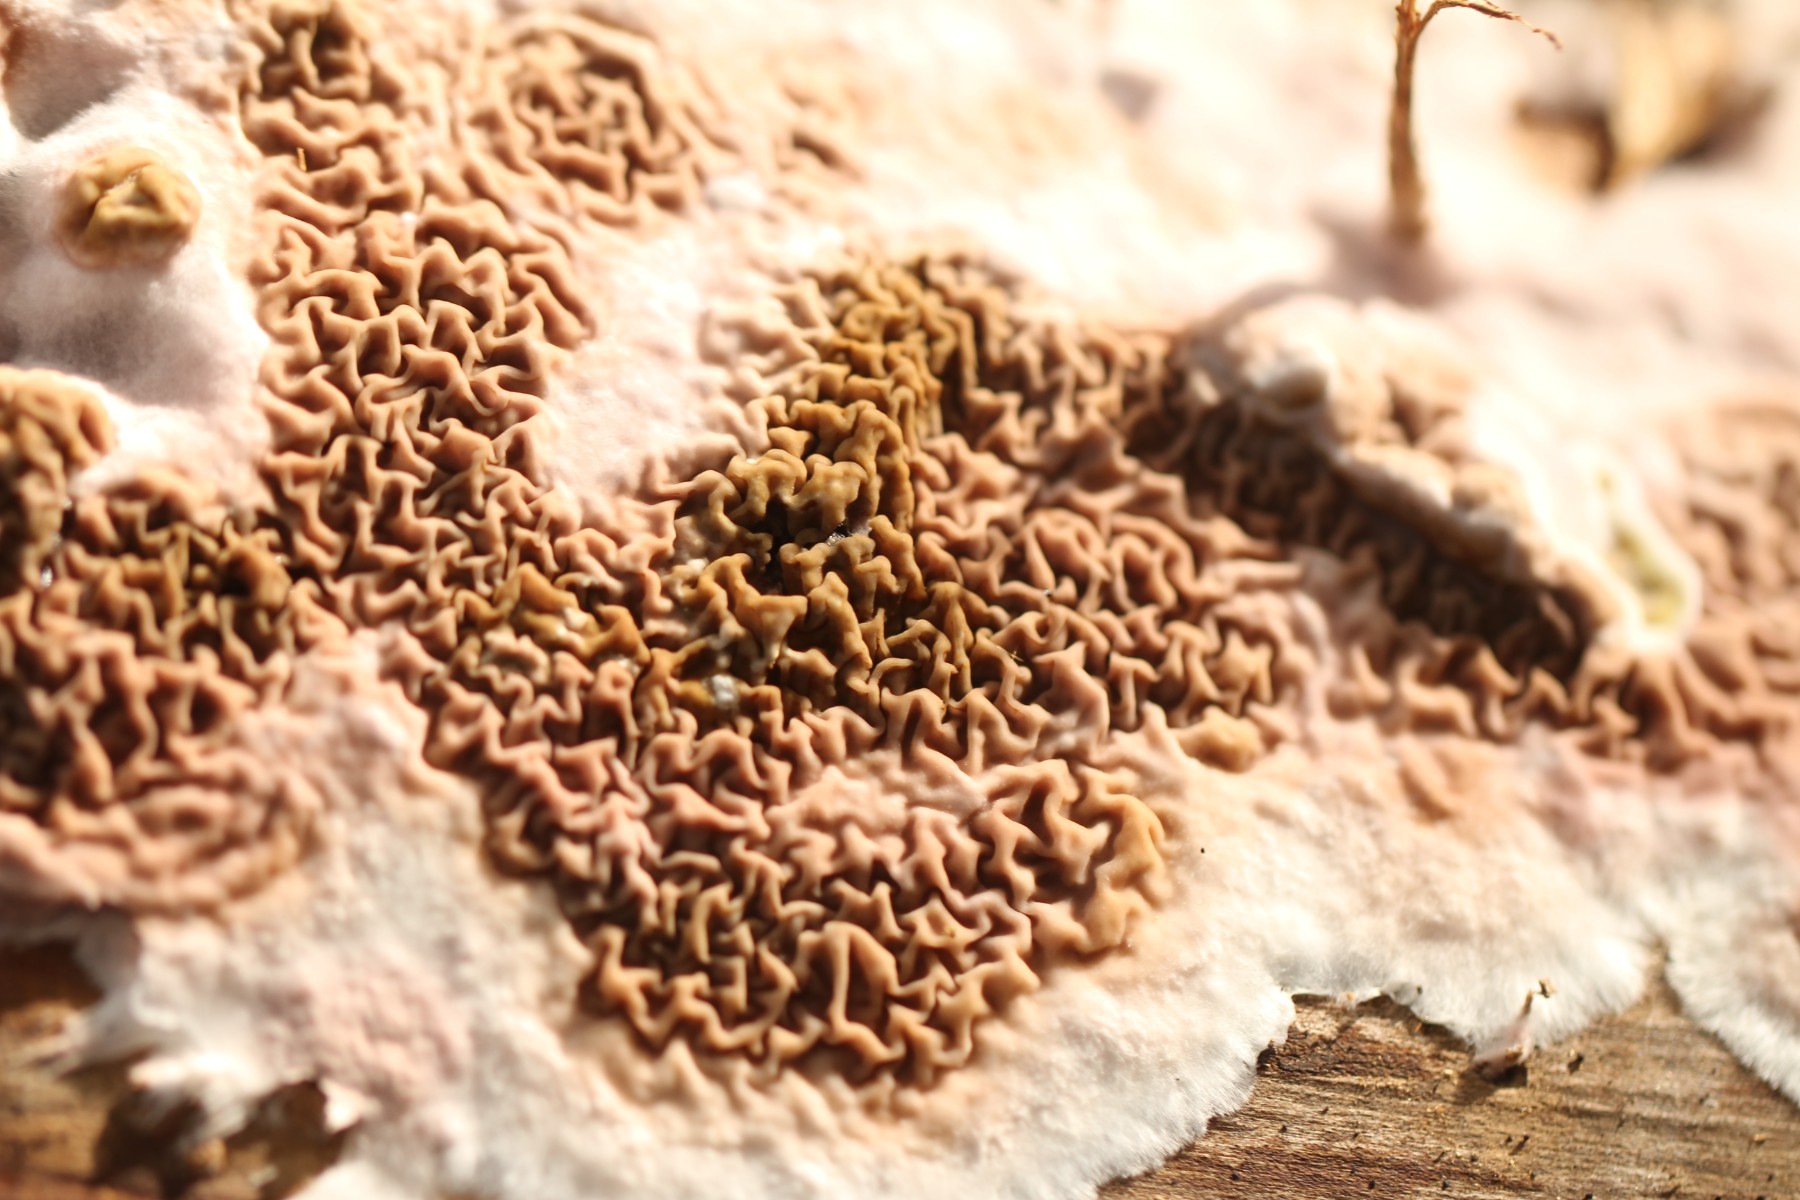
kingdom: Fungi
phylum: Basidiomycota
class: Agaricomycetes
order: Boletales
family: Serpulaceae
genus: Serpula
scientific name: Serpula himantioides
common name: tyndkødet hussvamp
